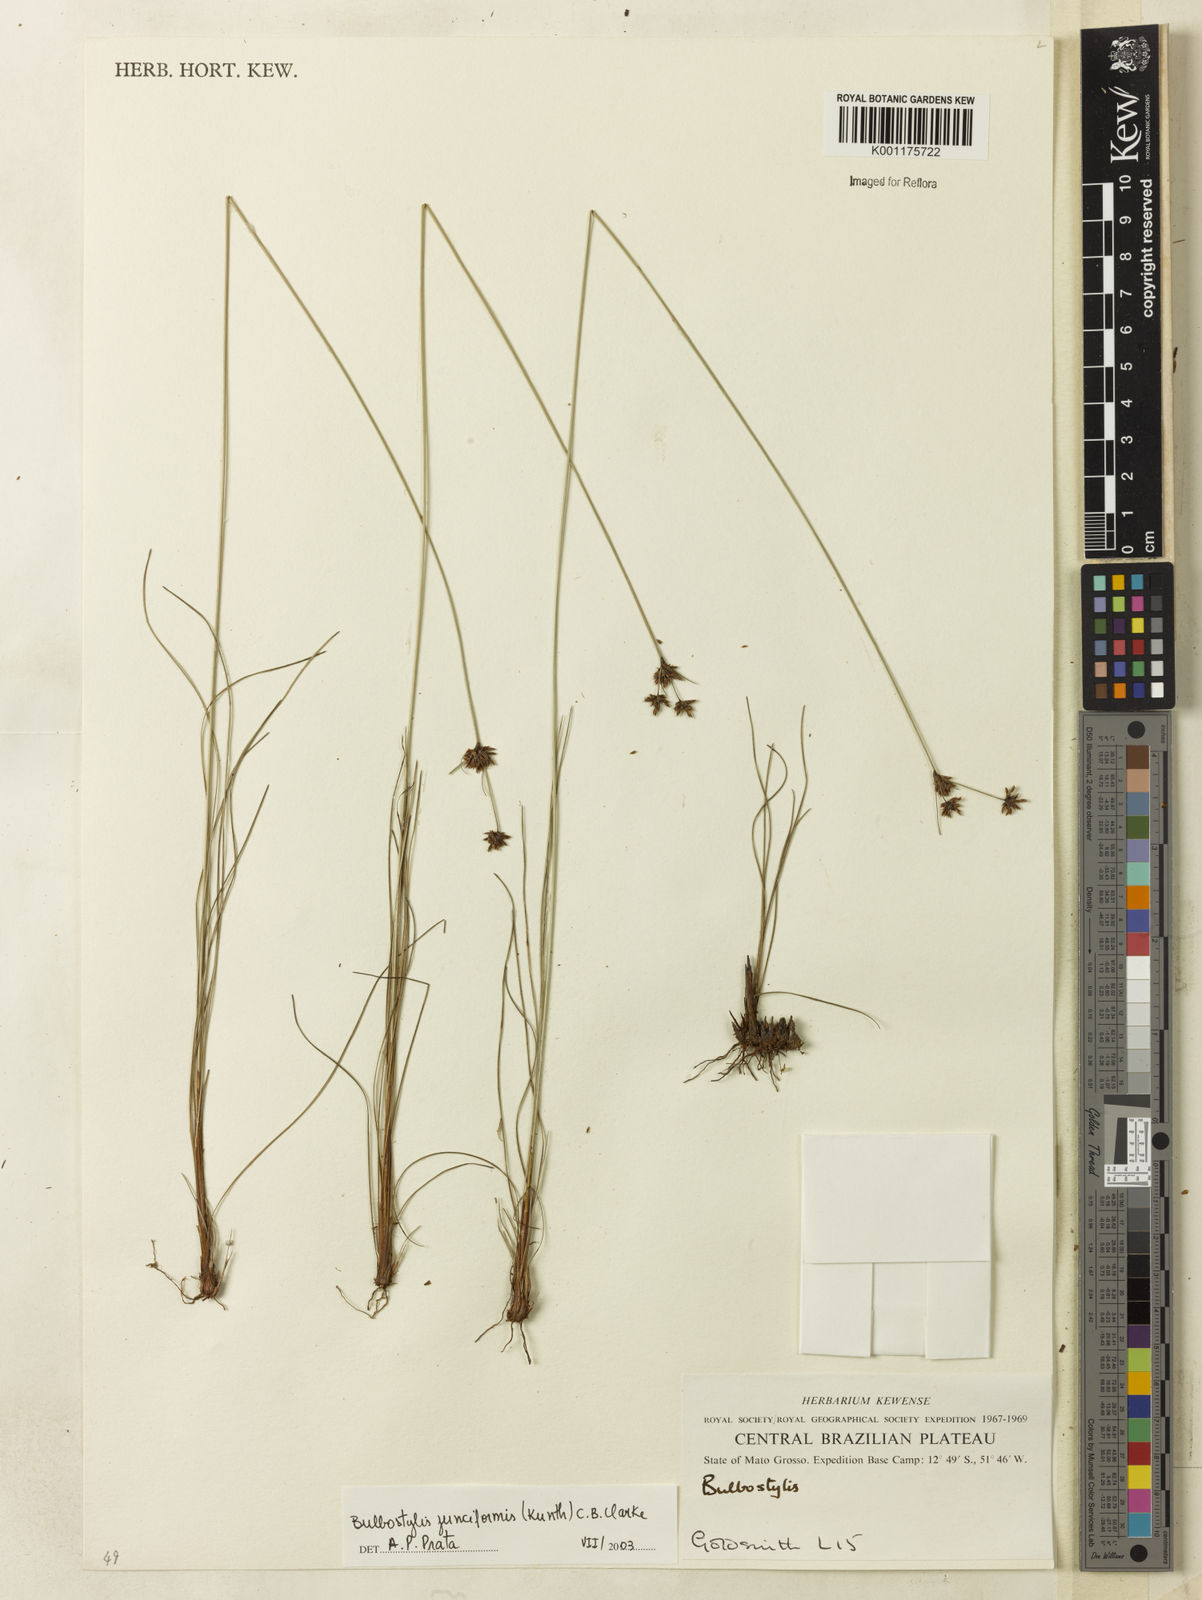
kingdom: Plantae
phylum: Tracheophyta
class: Liliopsida
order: Poales
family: Cyperaceae
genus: Bulbostylis
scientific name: Bulbostylis junciformis
